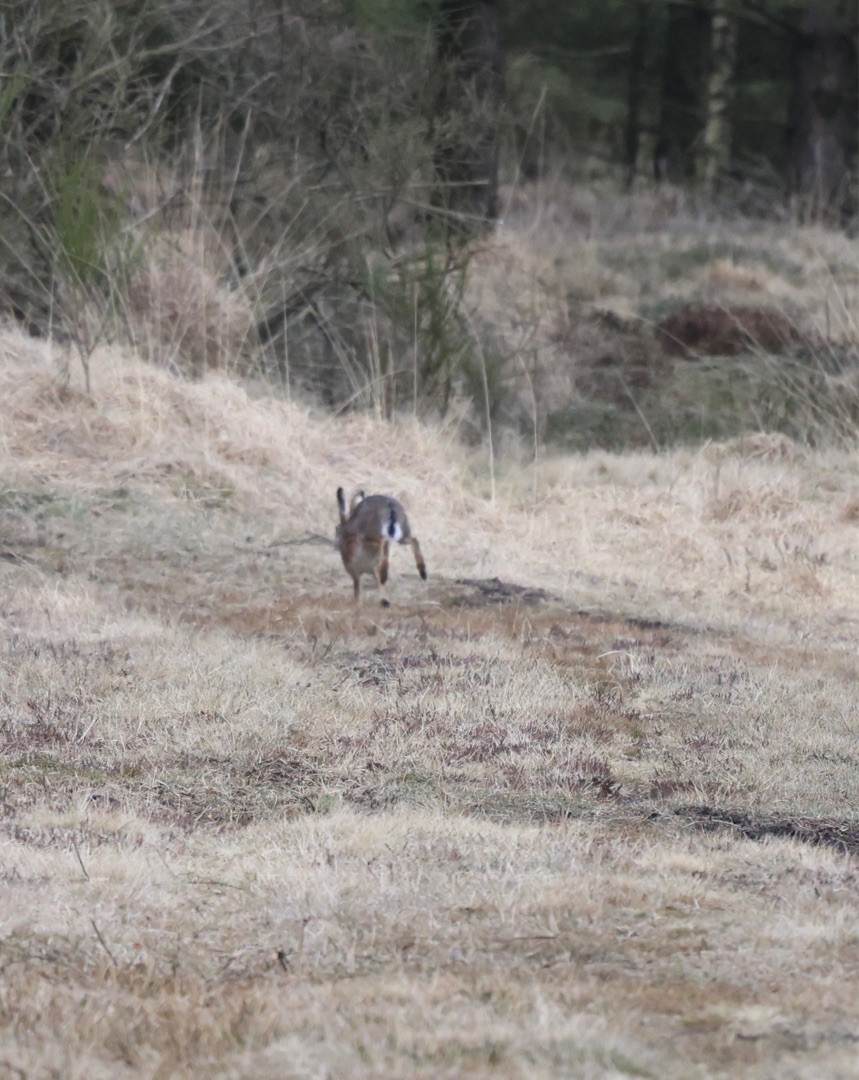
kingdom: Animalia
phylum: Chordata
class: Mammalia
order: Lagomorpha
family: Leporidae
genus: Lepus
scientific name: Lepus europaeus
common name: Hare
